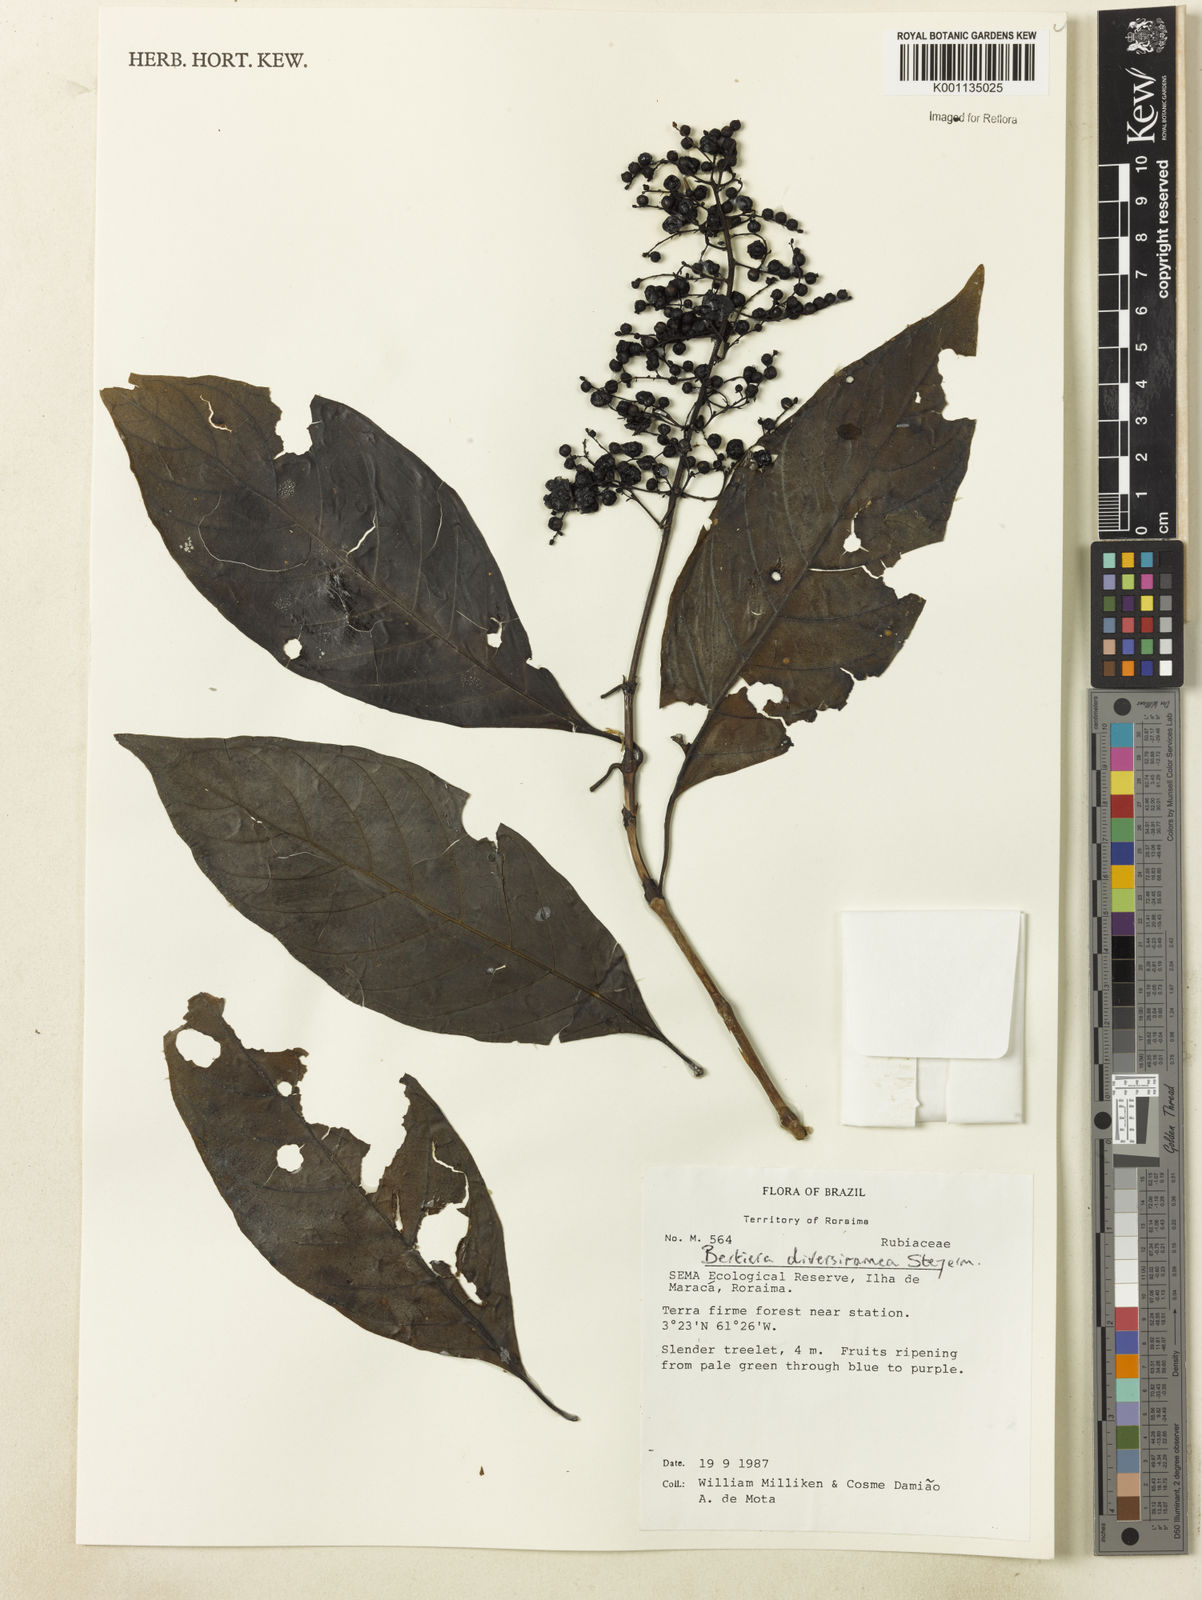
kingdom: Plantae
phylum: Tracheophyta
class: Magnoliopsida
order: Gentianales
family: Rubiaceae
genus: Bertiera
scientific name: Bertiera guianensis
